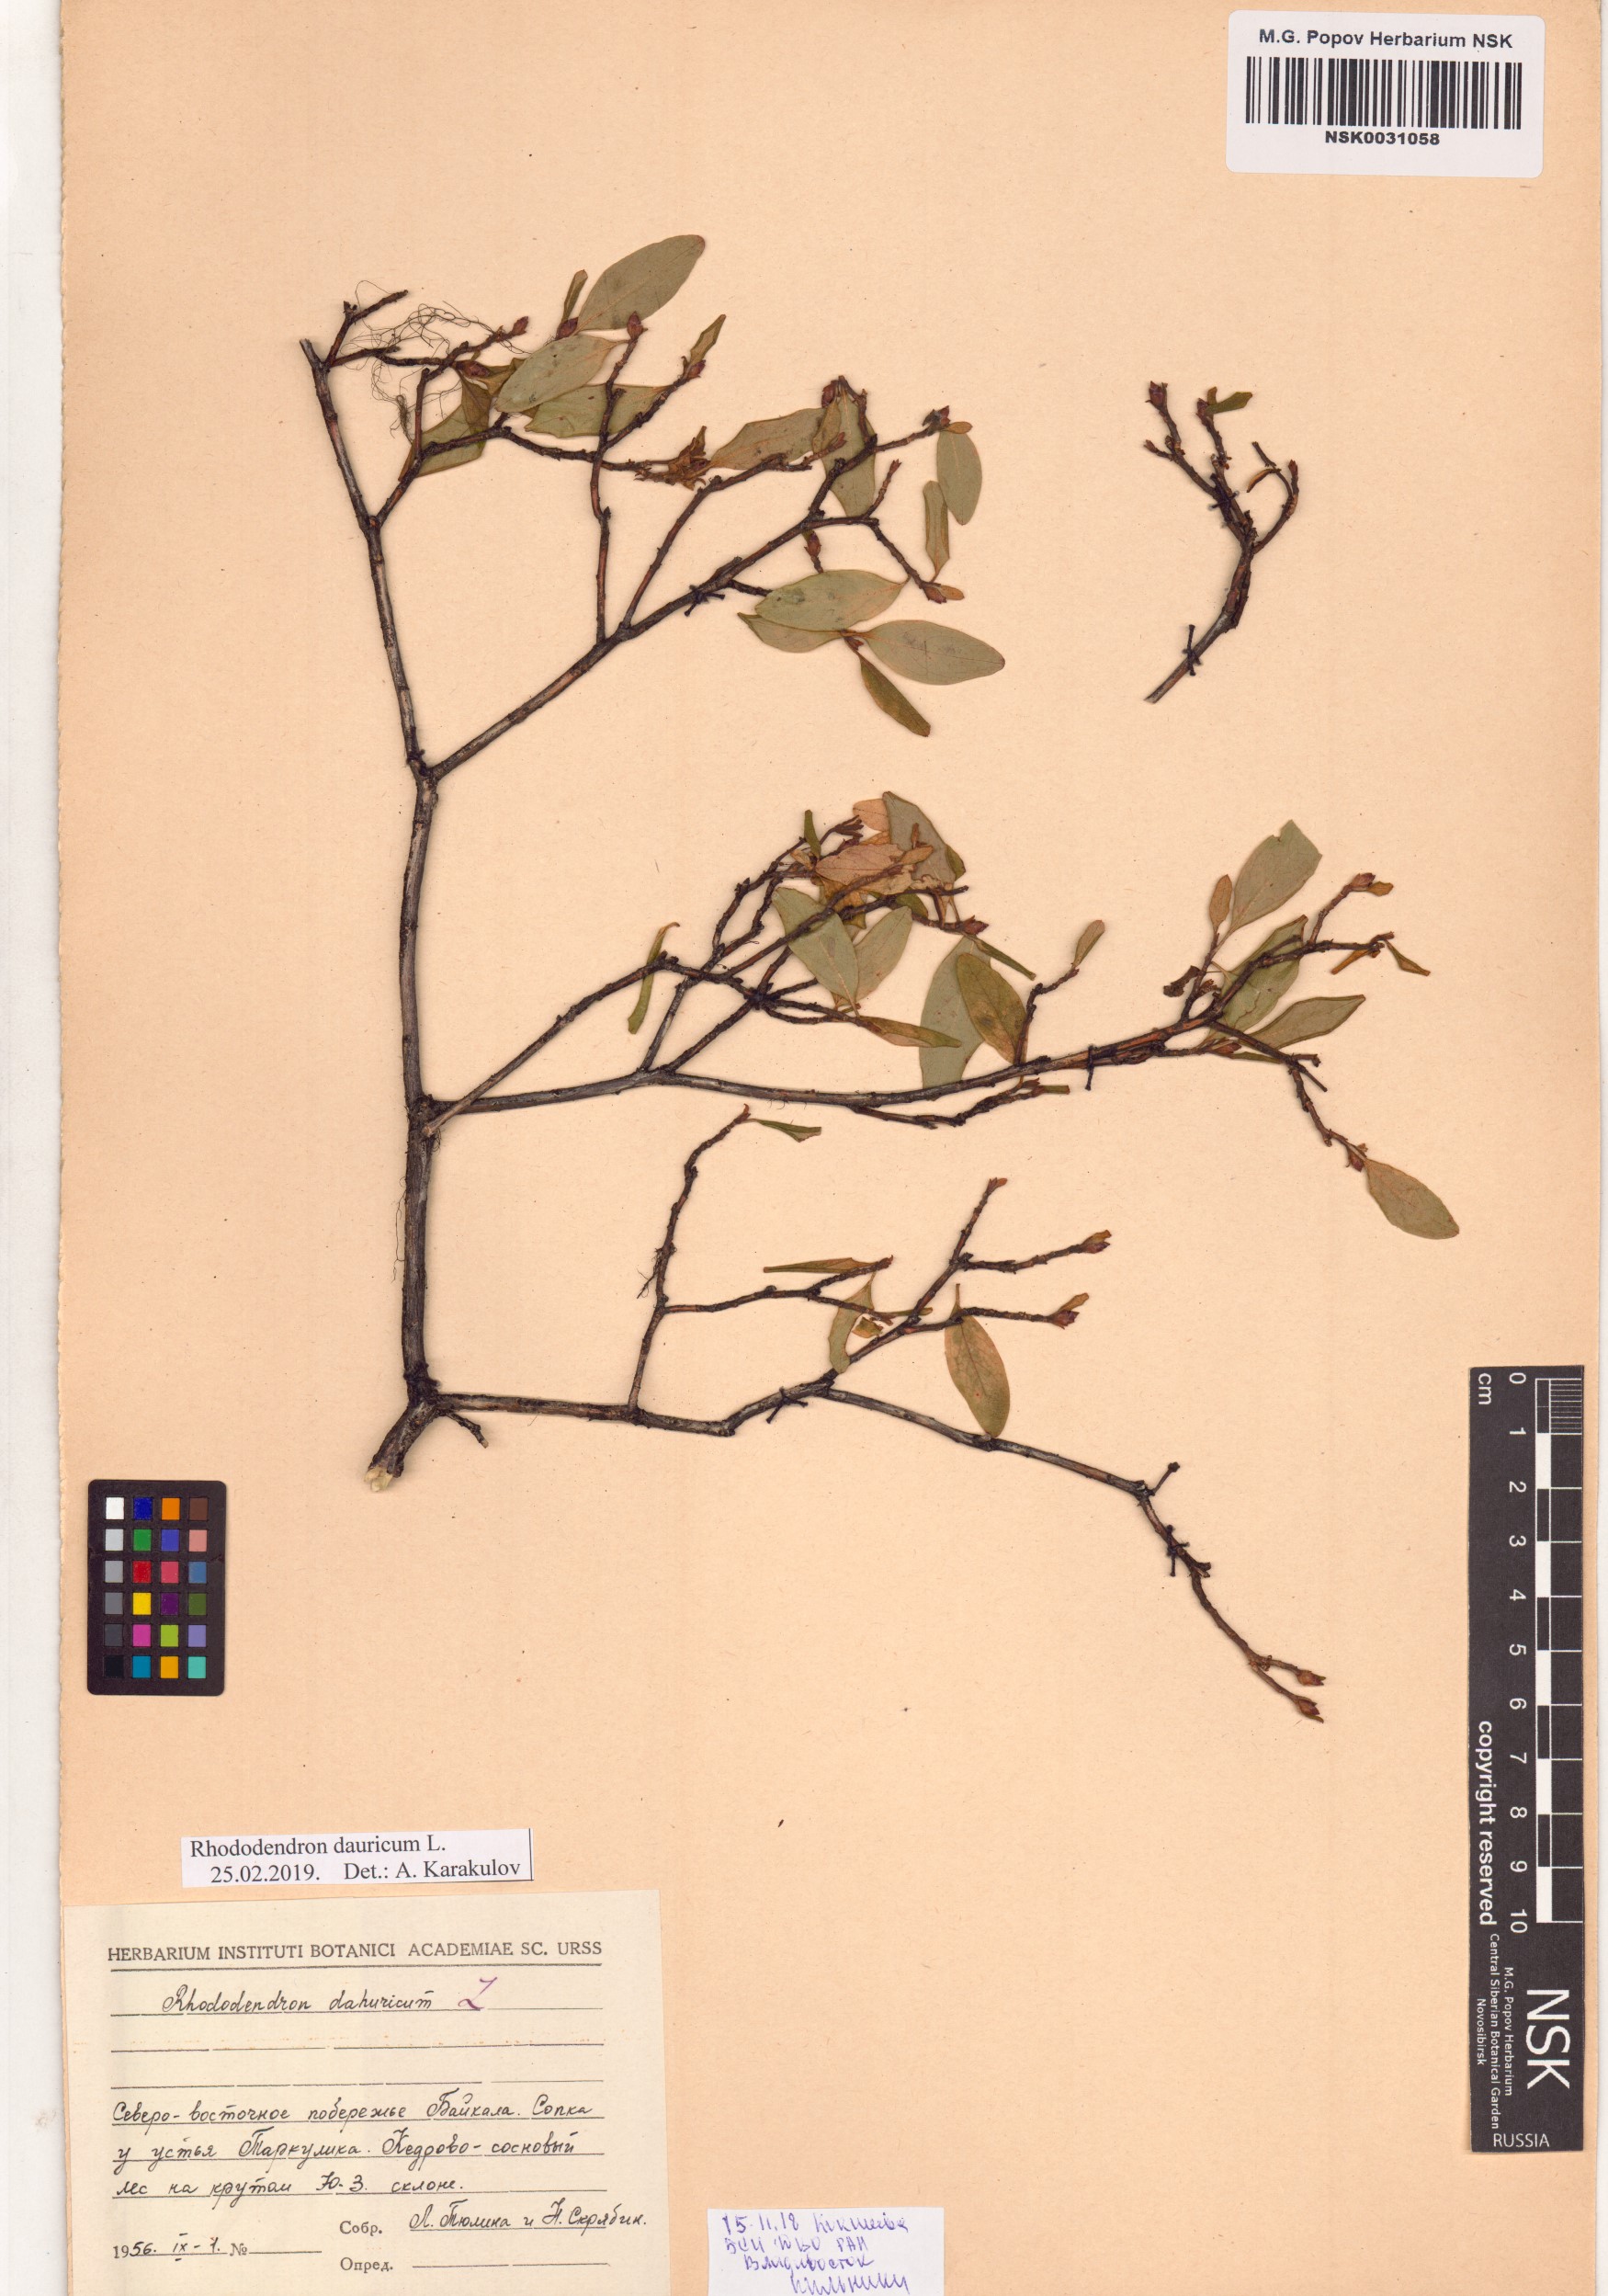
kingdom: Plantae
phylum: Tracheophyta
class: Magnoliopsida
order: Ericales
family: Ericaceae
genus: Rhododendron
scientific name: Rhododendron dauricum
